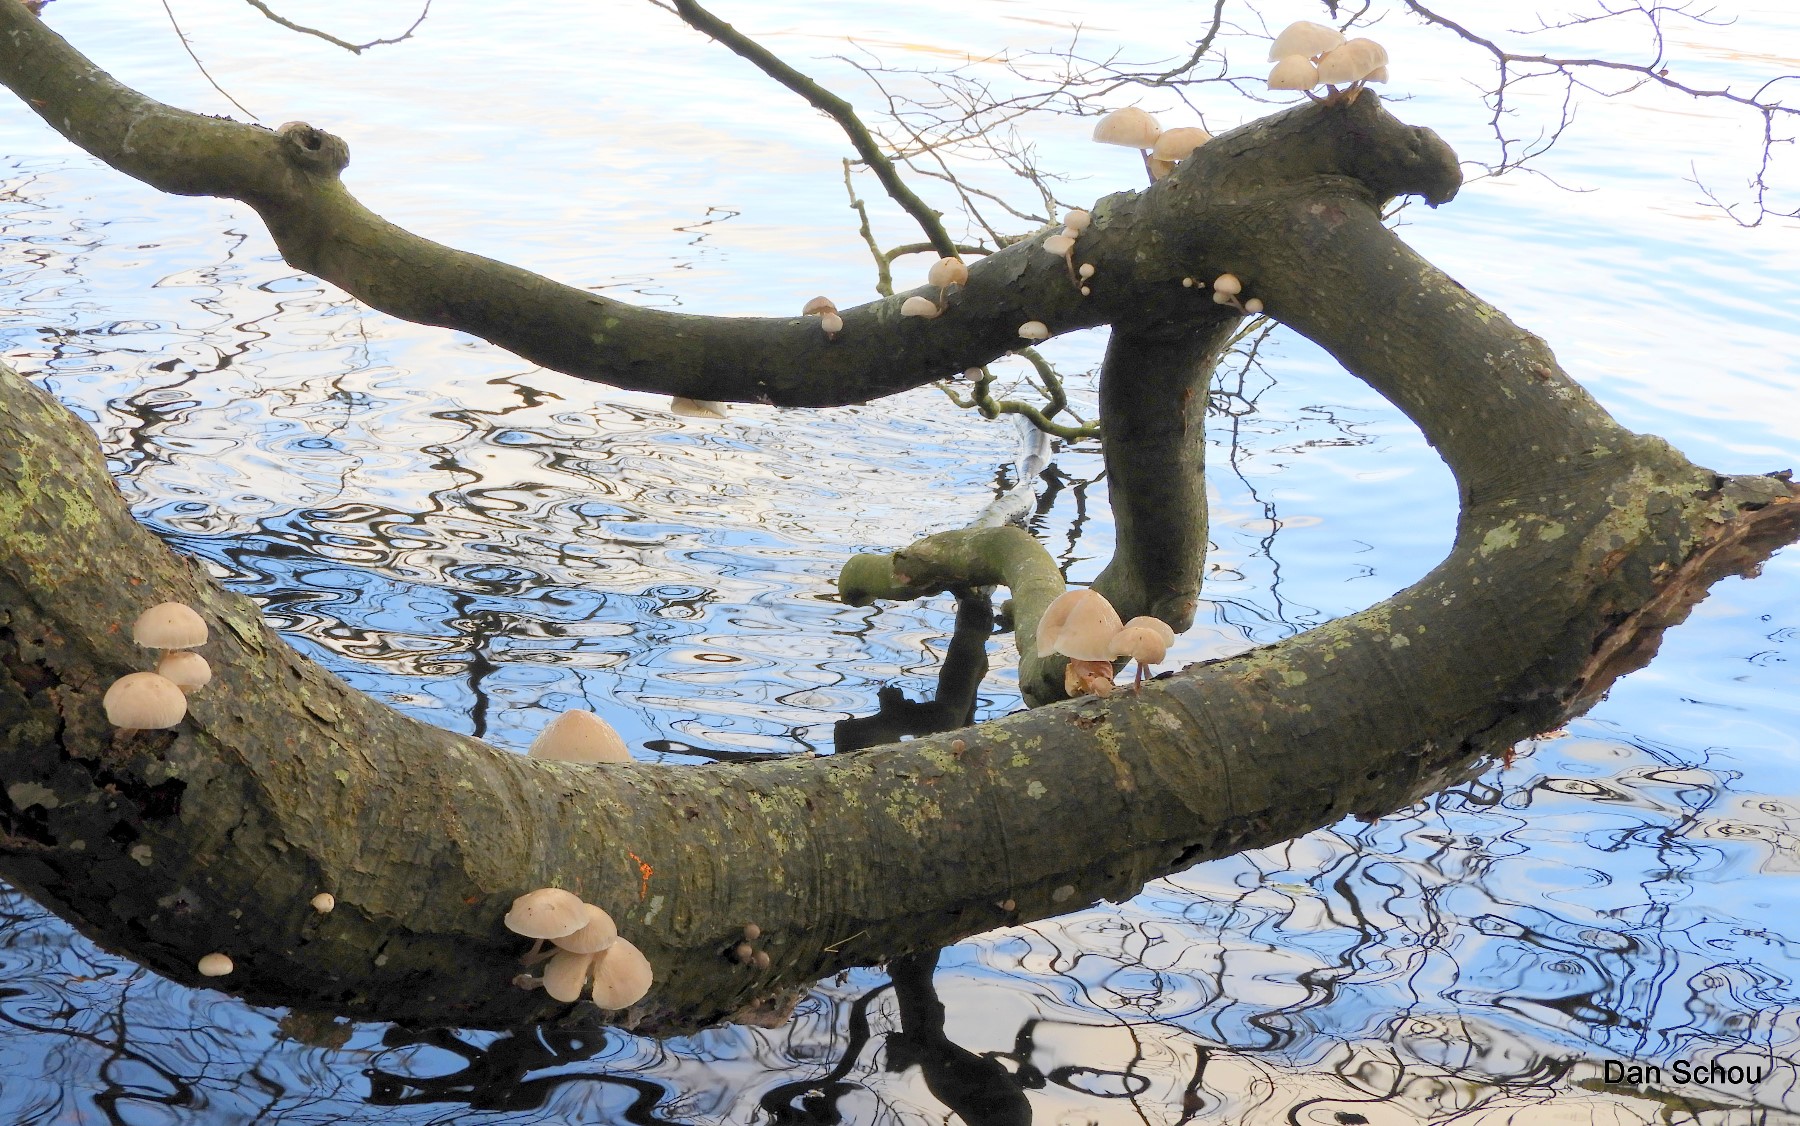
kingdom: Fungi
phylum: Basidiomycota
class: Agaricomycetes
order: Agaricales
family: Physalacriaceae
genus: Mucidula
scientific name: Mucidula mucida
